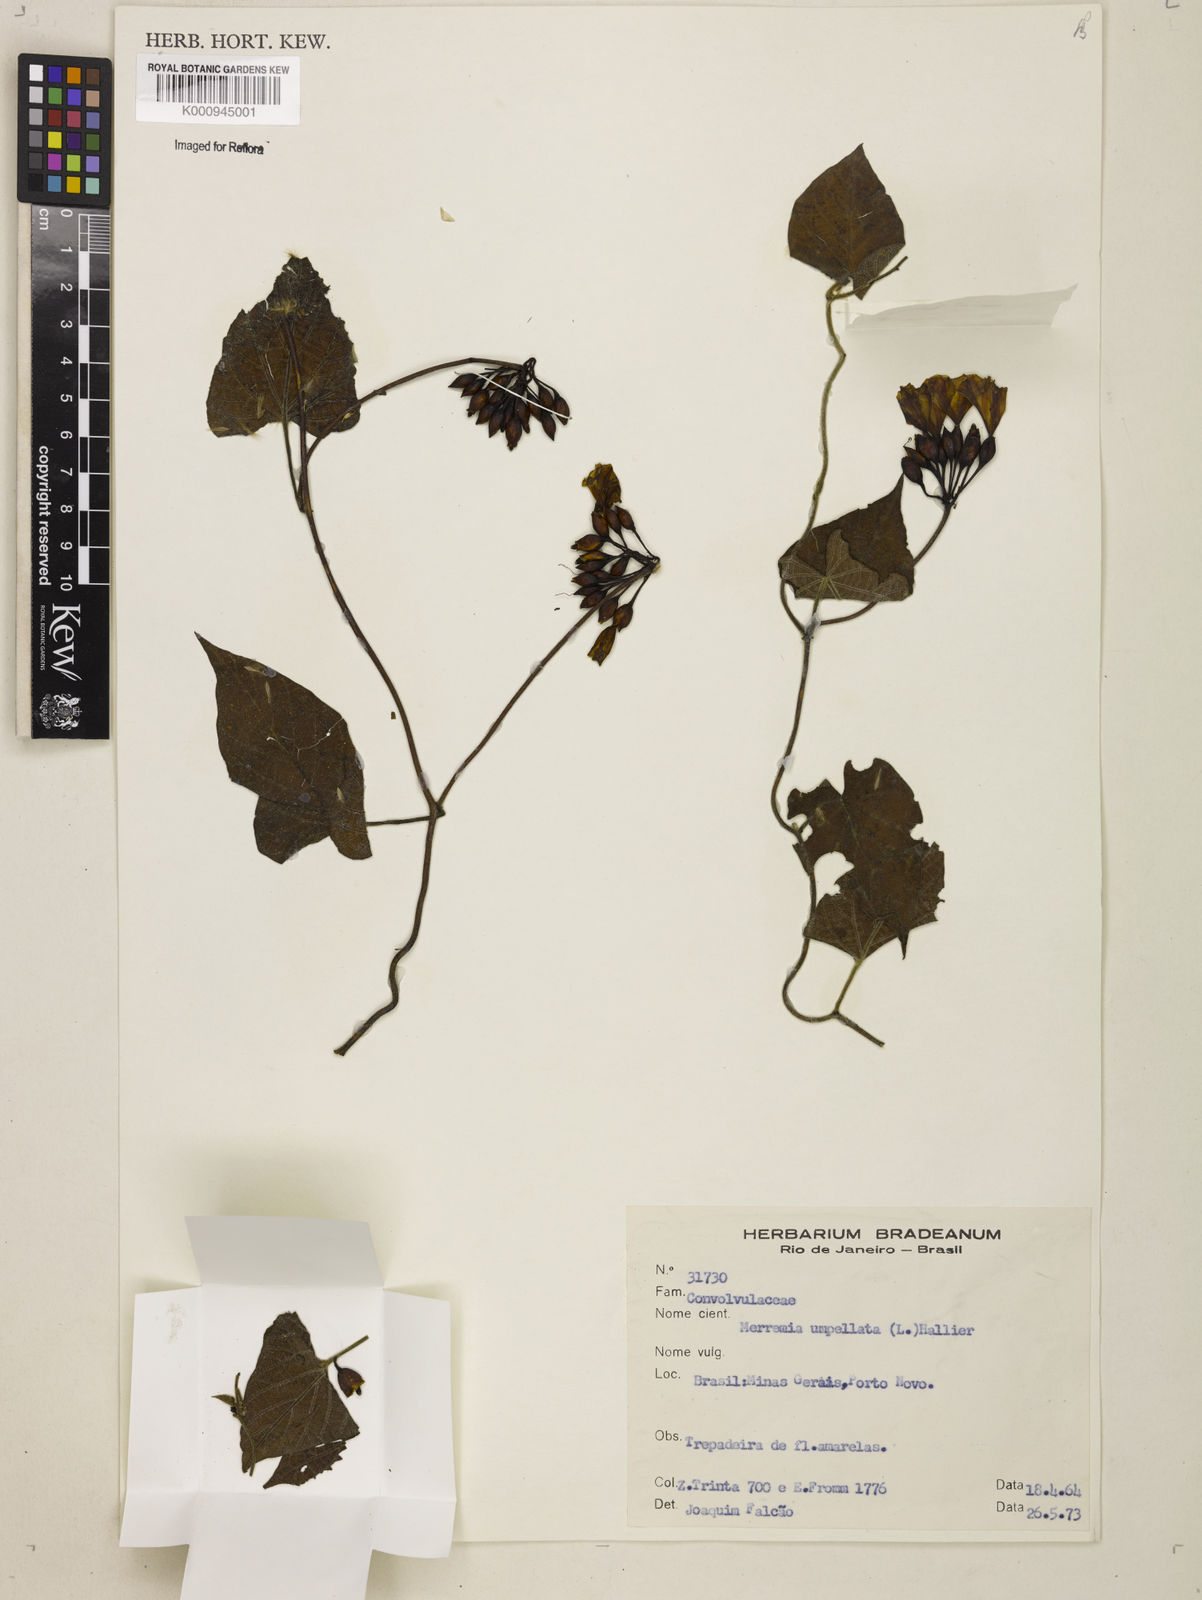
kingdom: Plantae
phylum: Tracheophyta
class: Magnoliopsida
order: Solanales
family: Convolvulaceae
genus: Camonea
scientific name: Camonea umbellata
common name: Hogvine
